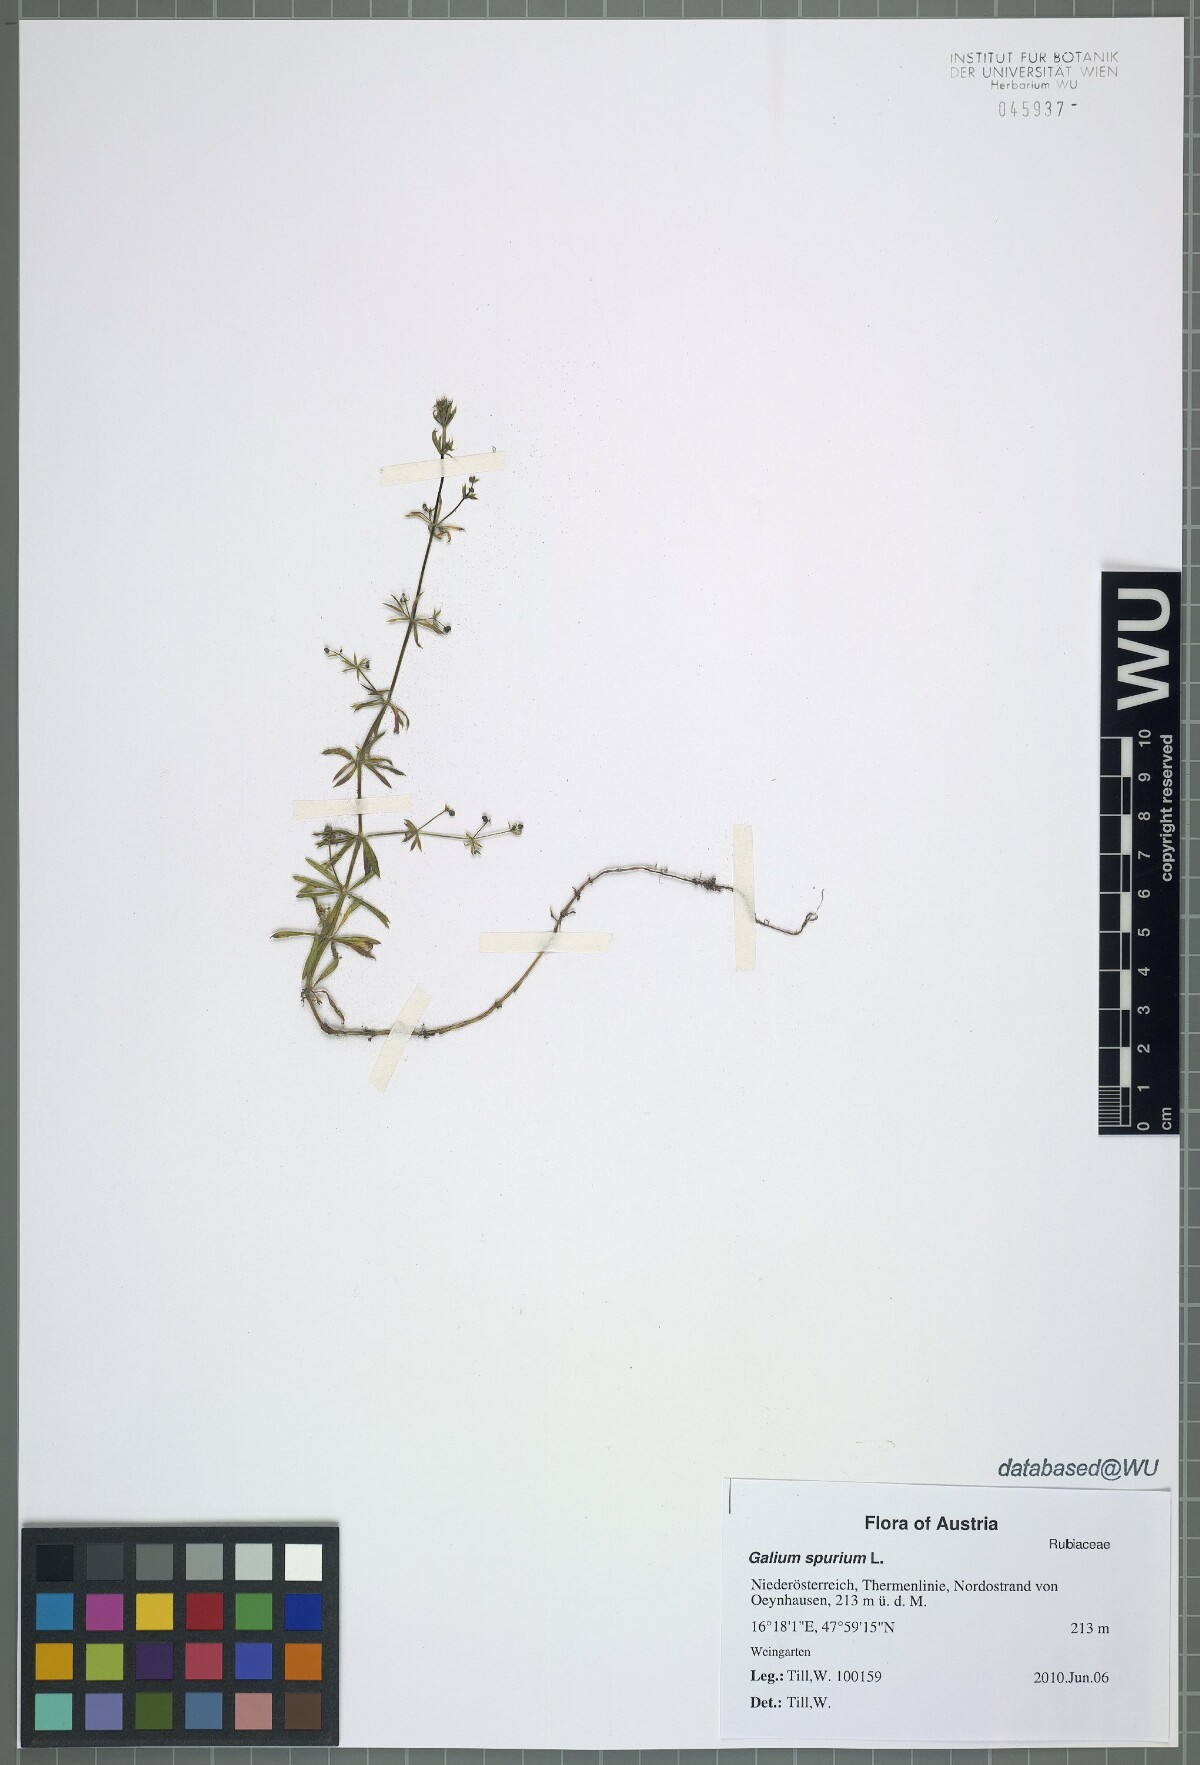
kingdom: Plantae
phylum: Tracheophyta
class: Magnoliopsida
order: Gentianales
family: Rubiaceae
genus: Galium
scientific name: Galium spurium
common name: False cleavers
